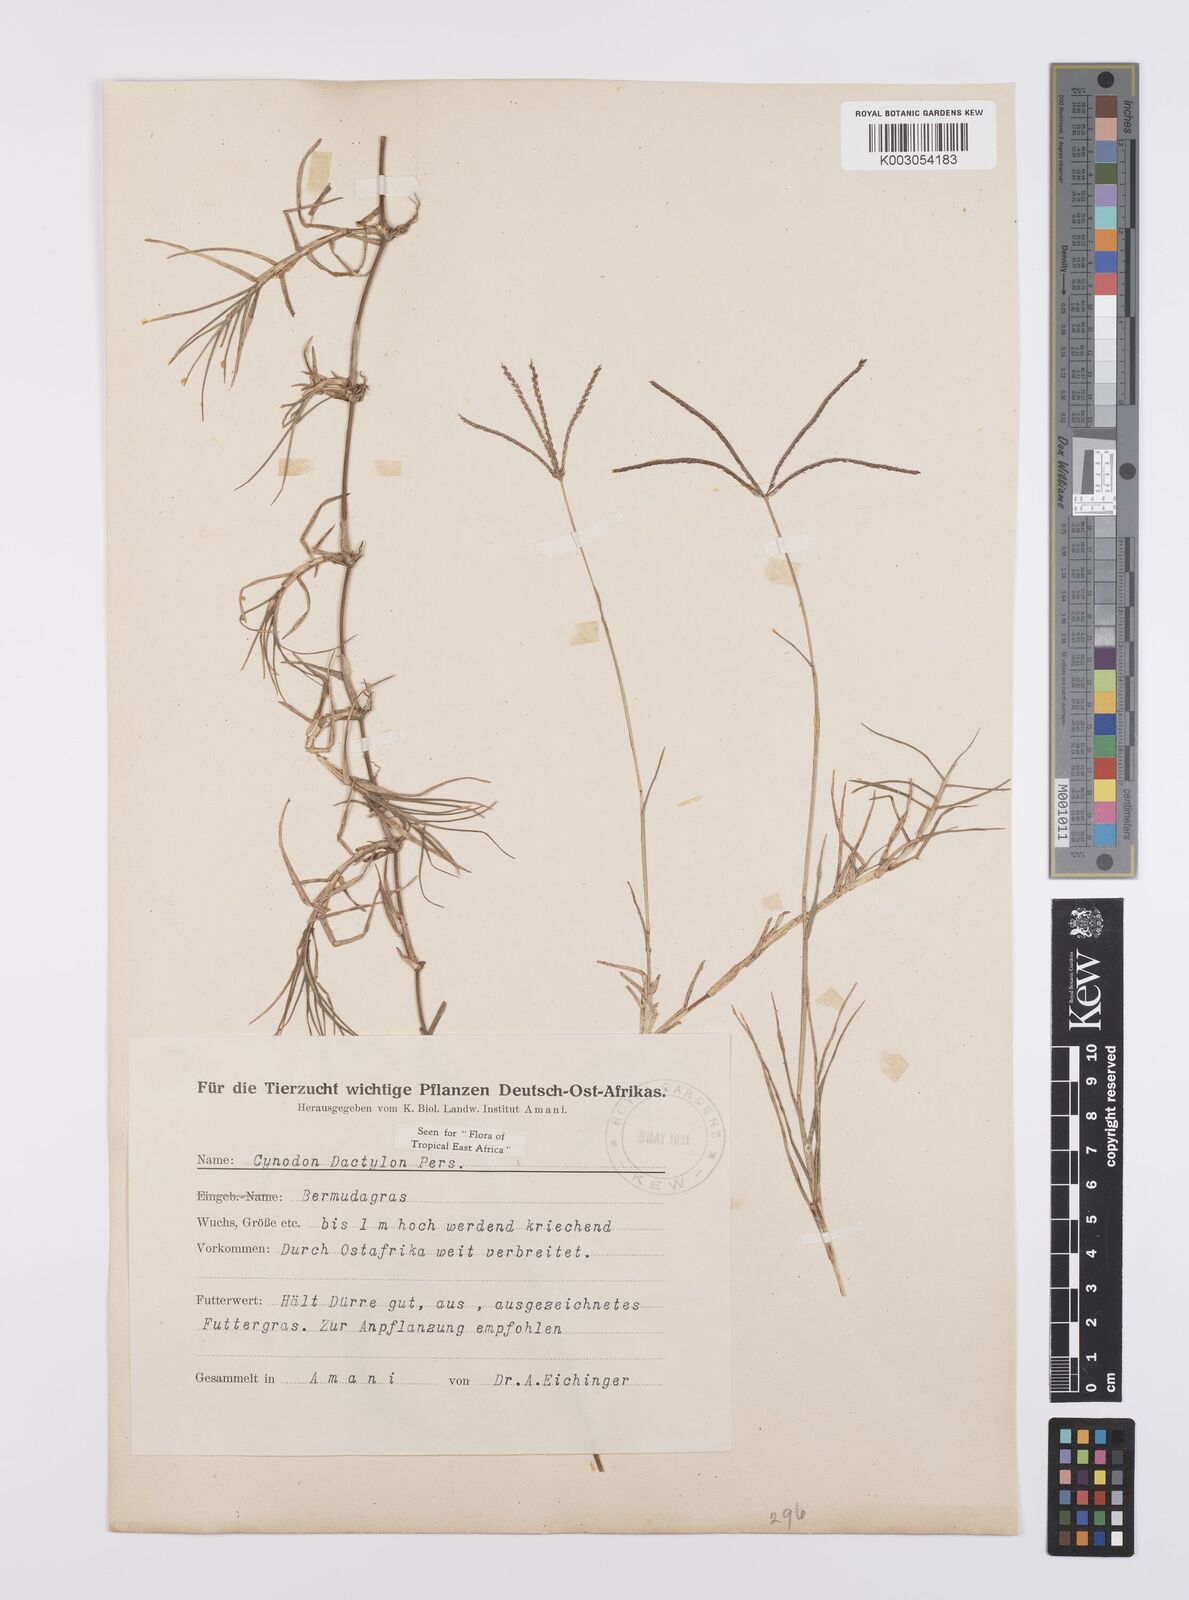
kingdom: Plantae
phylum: Tracheophyta
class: Liliopsida
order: Poales
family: Poaceae
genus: Cynodon
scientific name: Cynodon dactylon
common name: Bermuda grass
